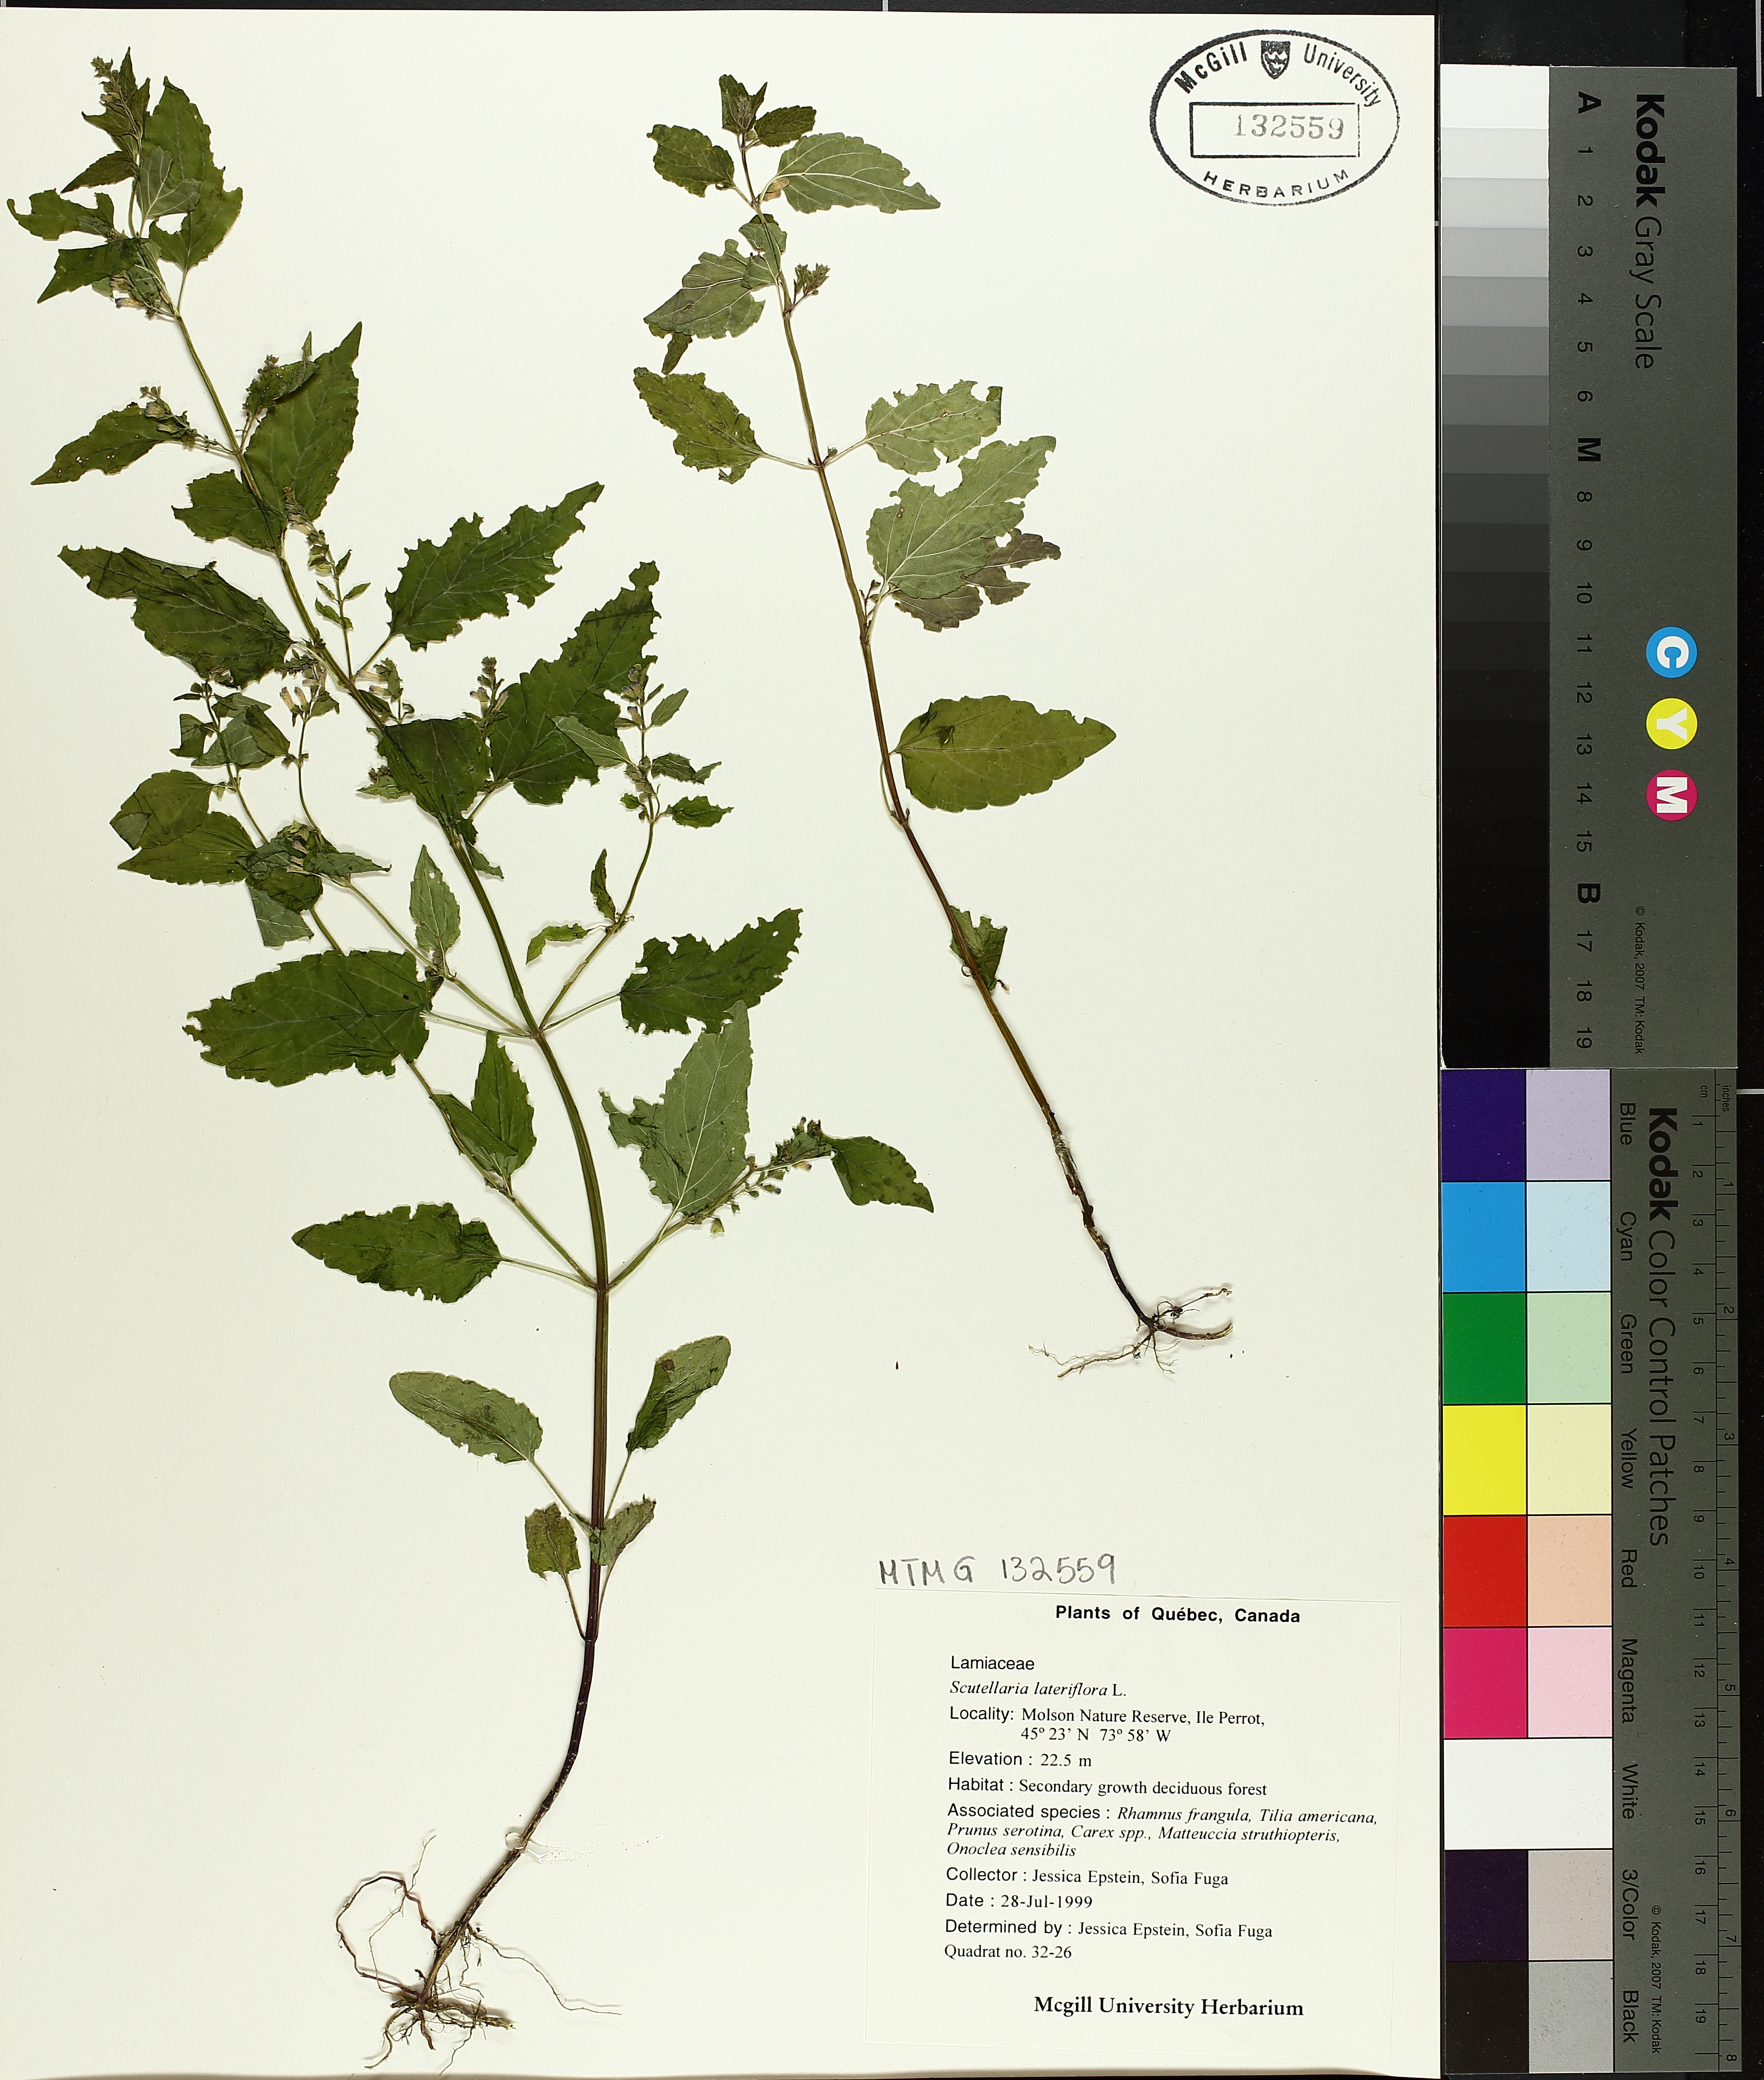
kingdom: Plantae
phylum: Tracheophyta
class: Magnoliopsida
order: Lamiales
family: Lamiaceae
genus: Scutellaria
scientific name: Scutellaria lateriflora
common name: Blue skullcap
